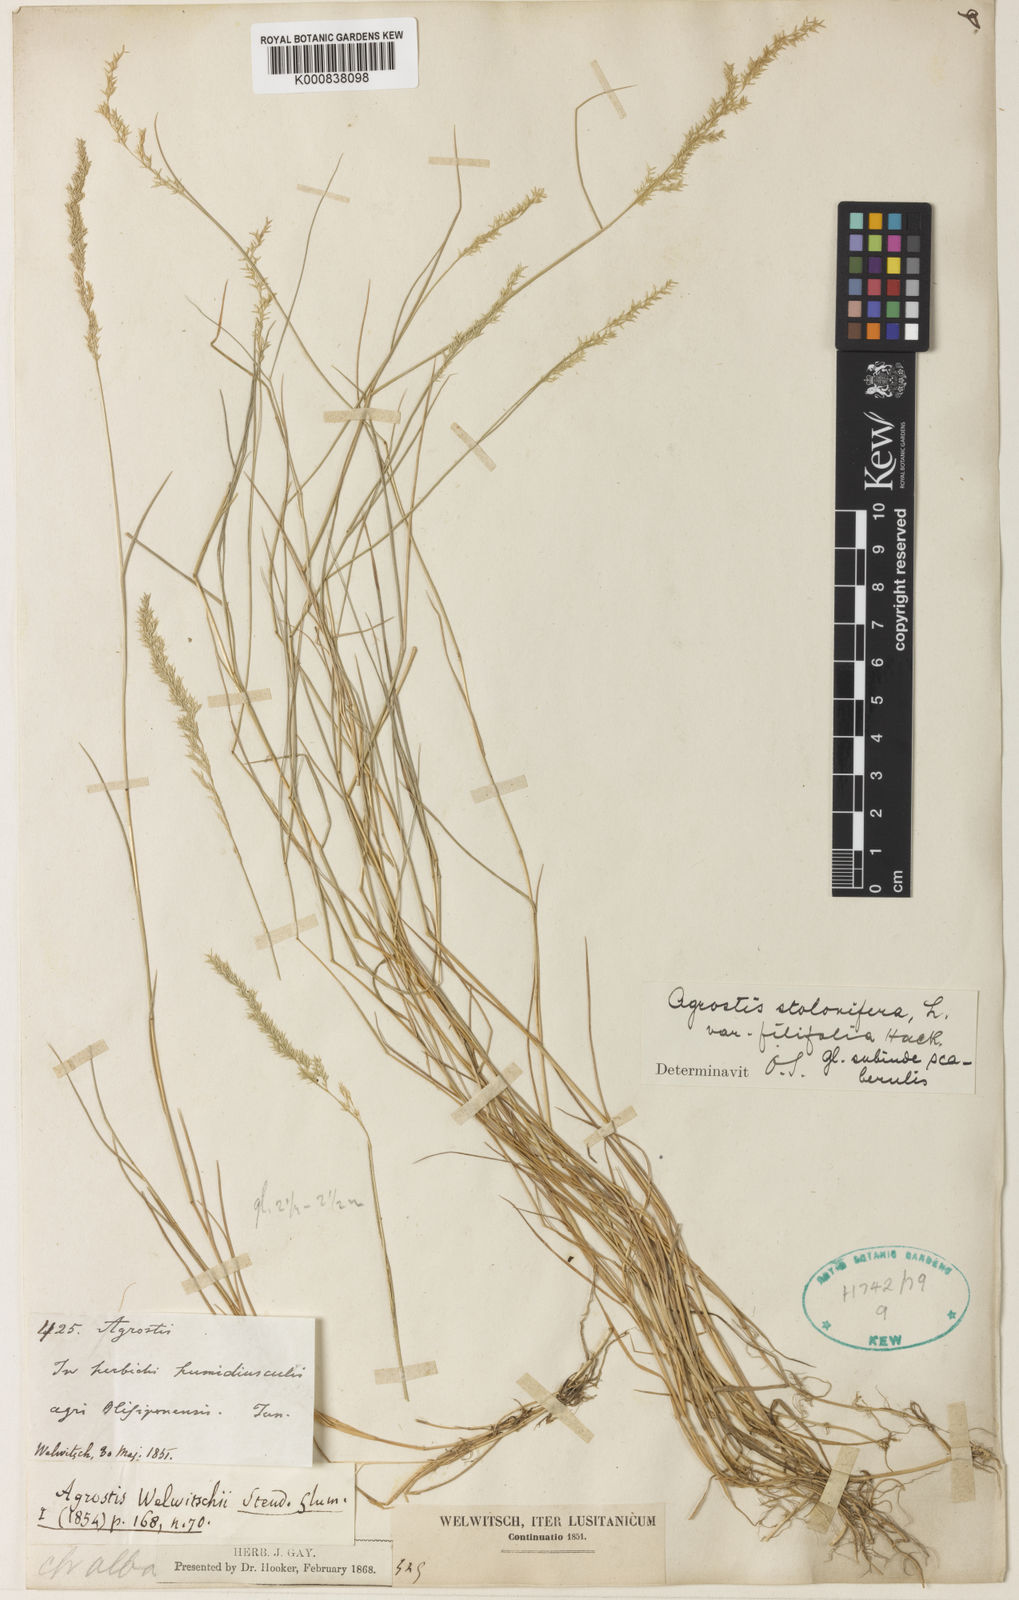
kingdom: Plantae
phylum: Tracheophyta
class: Liliopsida
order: Poales
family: Poaceae
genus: Agrostis
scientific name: Agrostis stolonifera
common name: Creeping bentgrass
